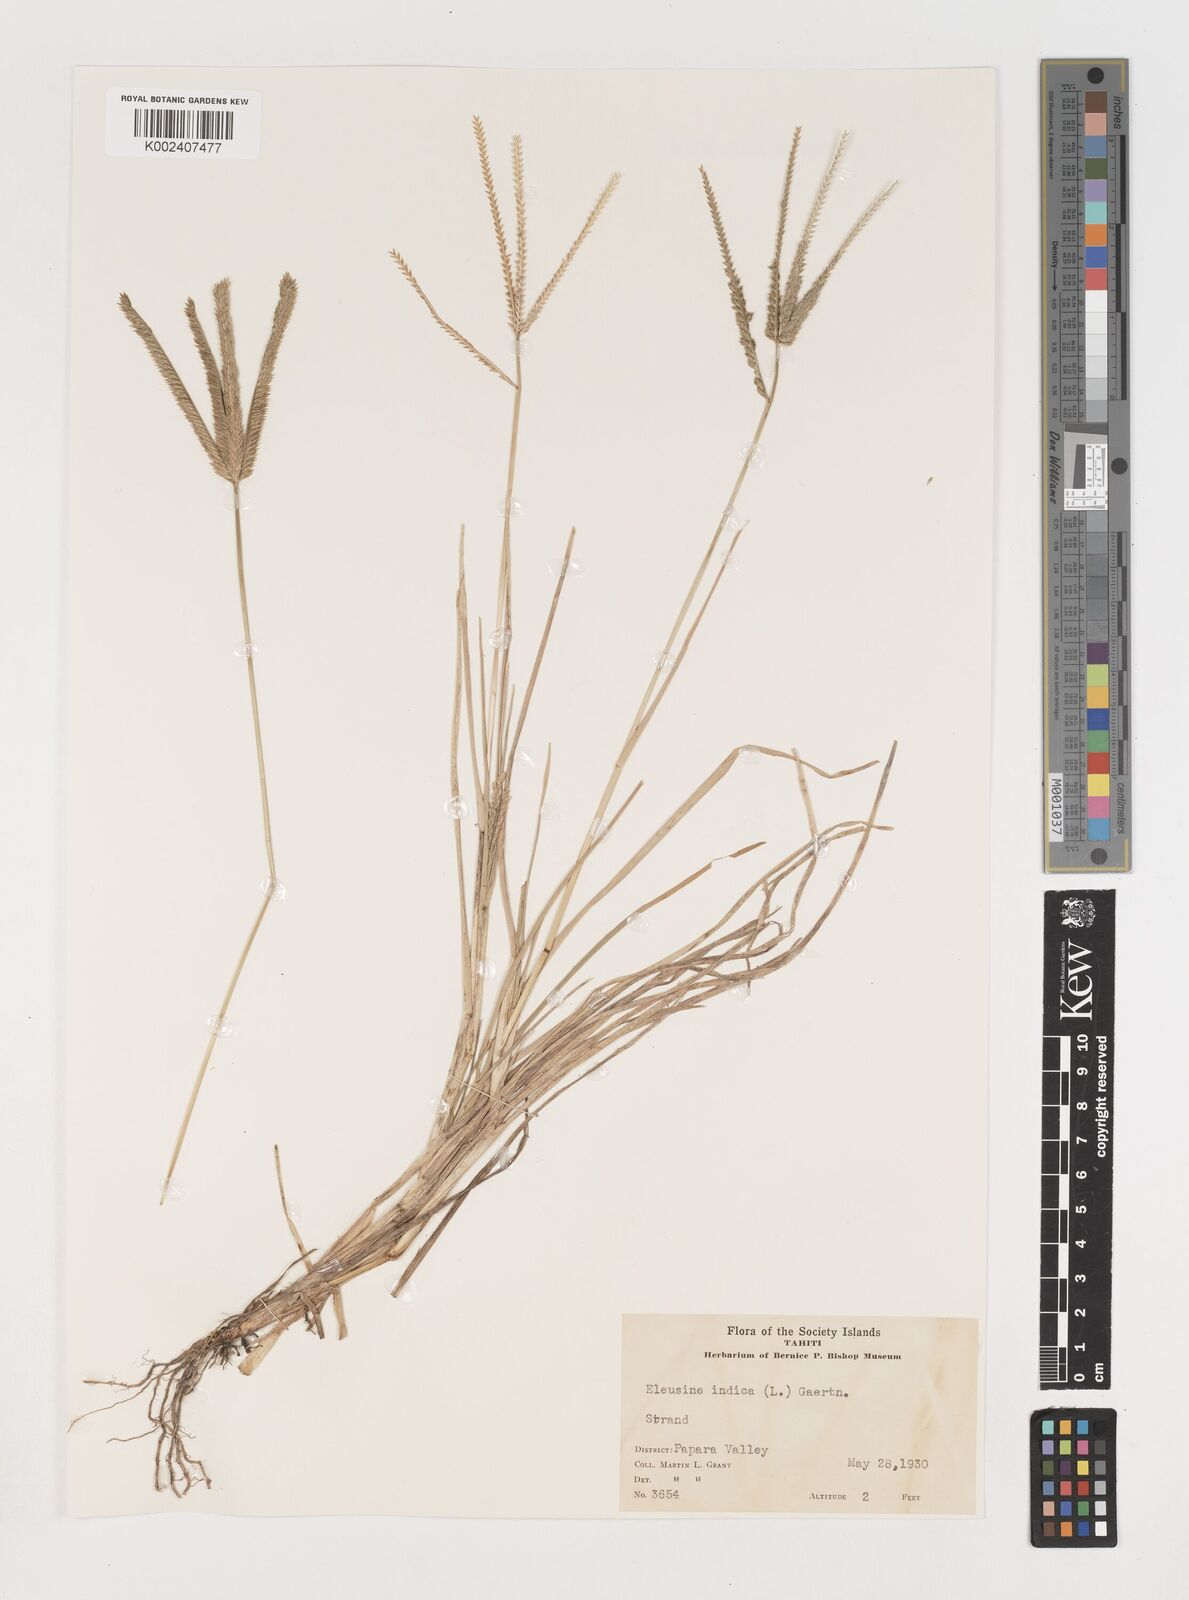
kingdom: Plantae
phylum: Tracheophyta
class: Liliopsida
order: Poales
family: Poaceae
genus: Eleusine
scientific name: Eleusine indica
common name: Yard-grass
